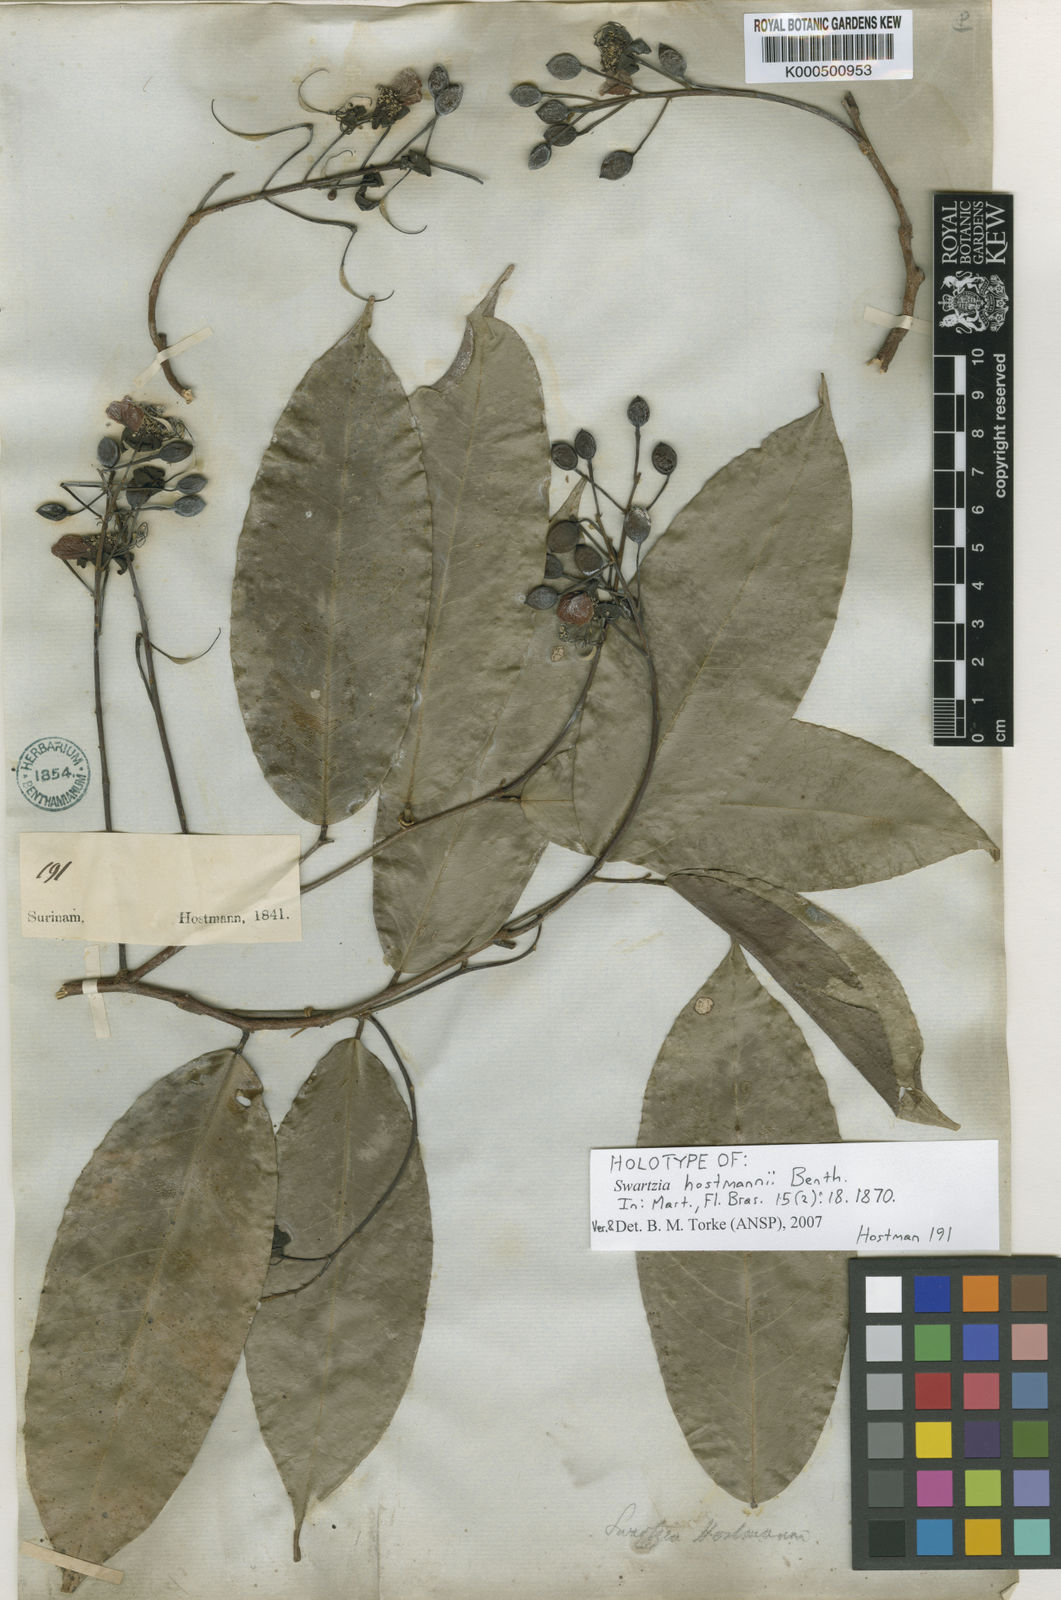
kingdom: Plantae
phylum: Tracheophyta
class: Magnoliopsida
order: Fabales
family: Fabaceae
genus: Swartzia
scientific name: Swartzia hostmannii
